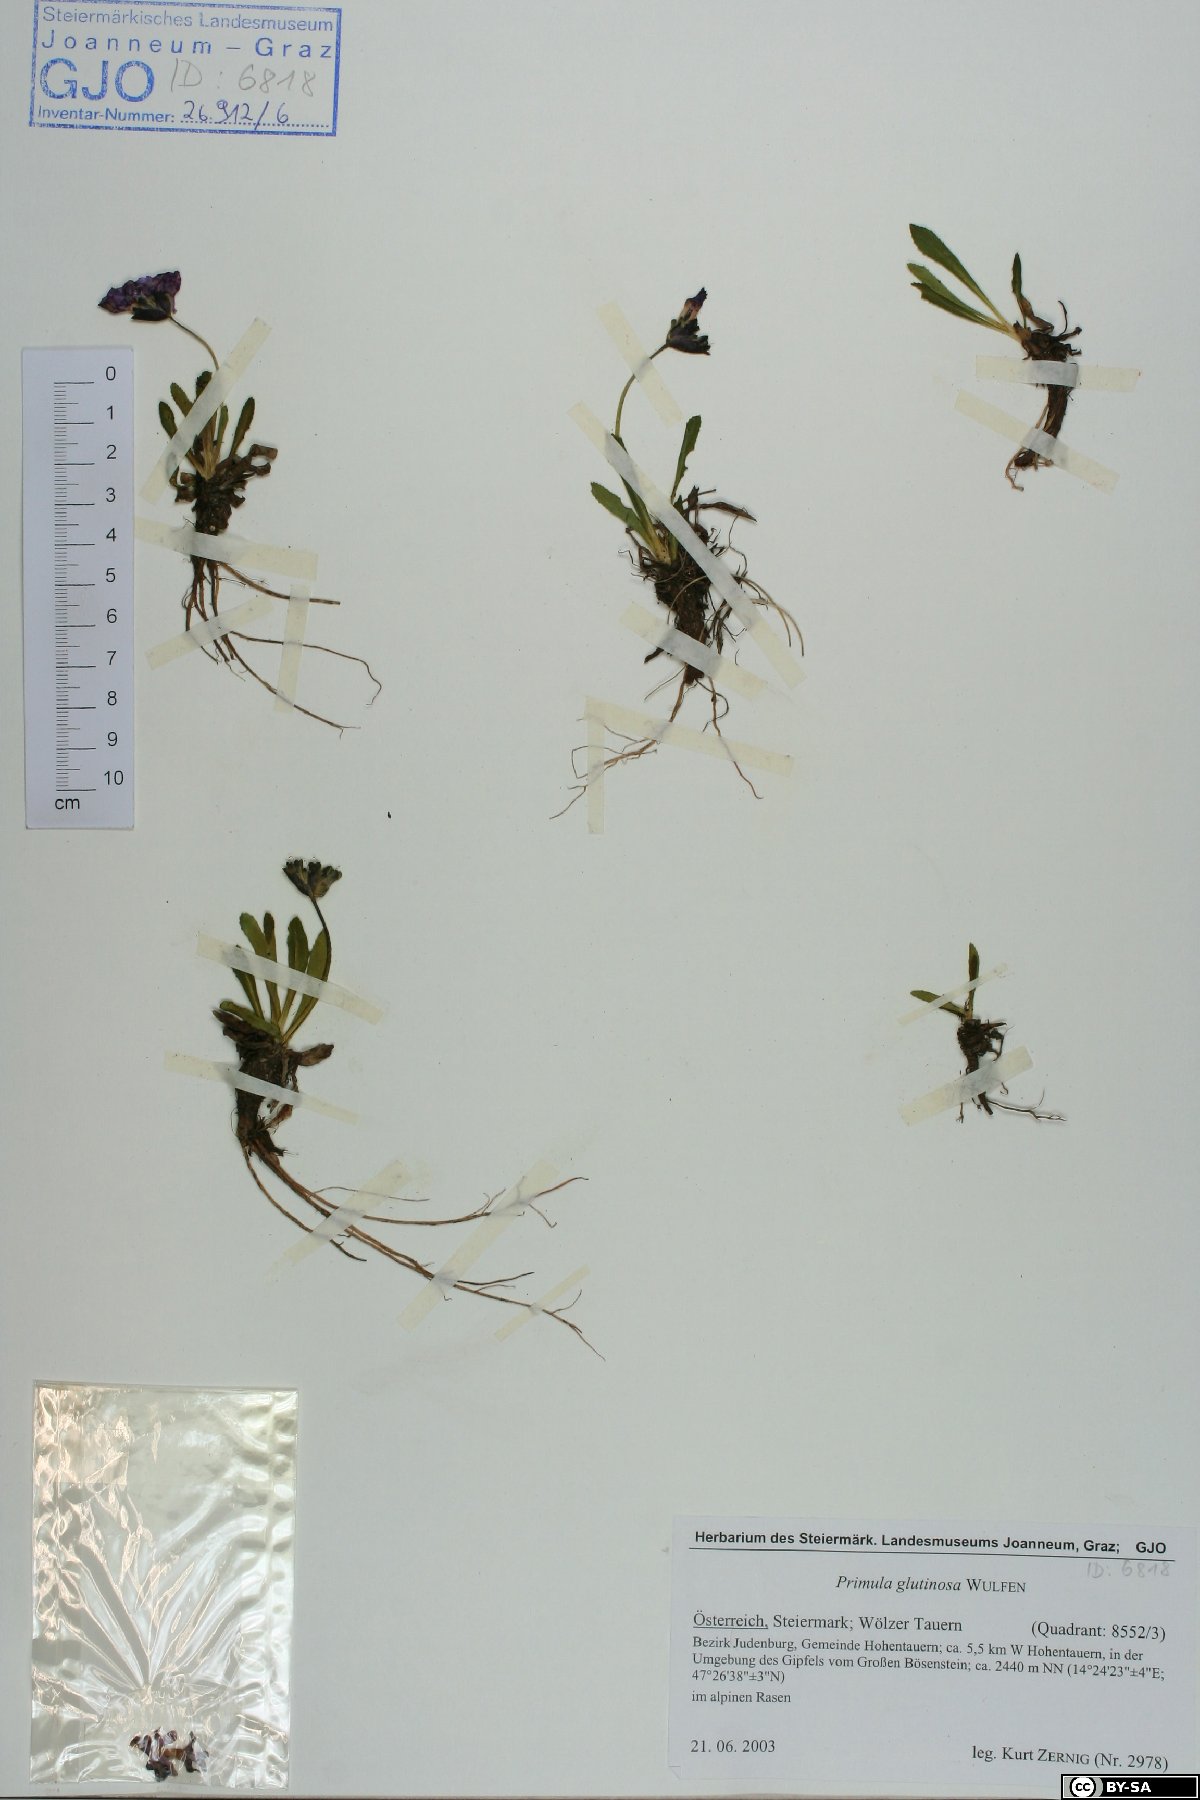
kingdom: Plantae
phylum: Tracheophyta
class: Magnoliopsida
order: Ericales
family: Primulaceae
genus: Primula
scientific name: Primula glutinosa
